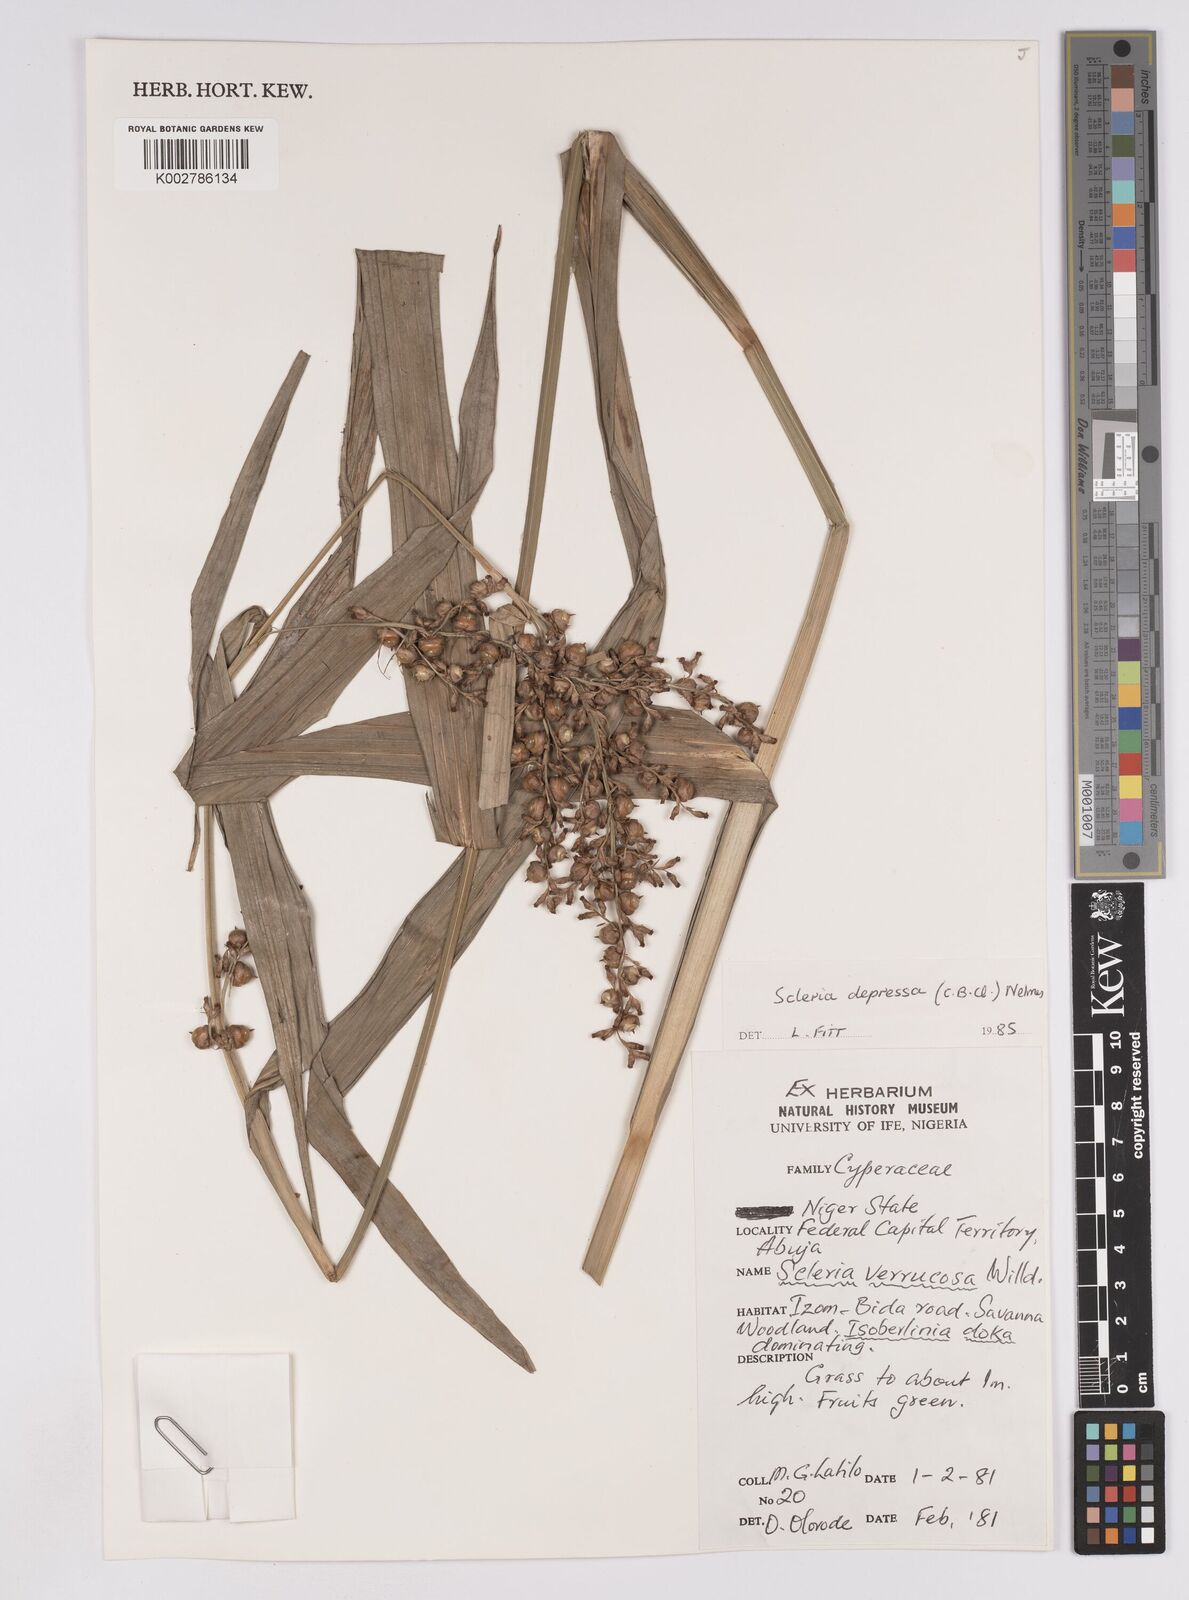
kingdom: Plantae
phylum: Tracheophyta
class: Liliopsida
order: Poales
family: Cyperaceae
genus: Scleria
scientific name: Scleria depressa
